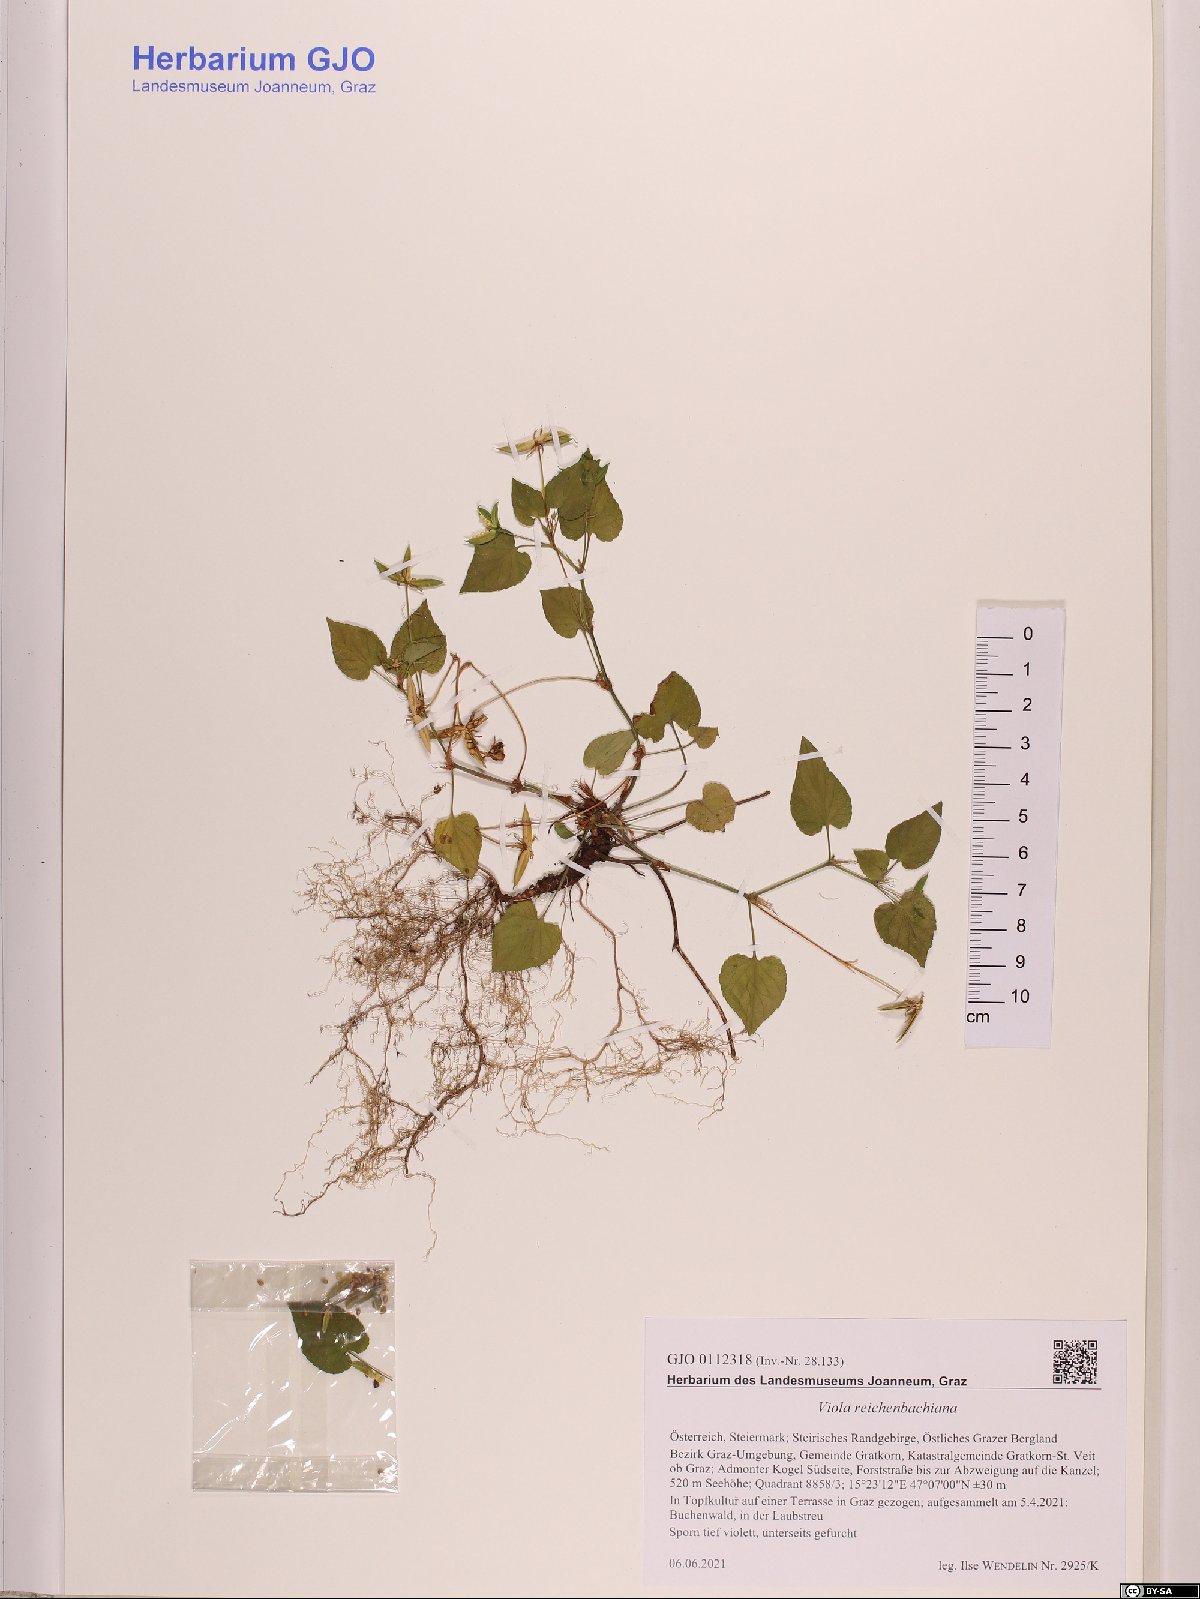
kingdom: Plantae
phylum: Tracheophyta
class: Magnoliopsida
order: Malpighiales
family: Violaceae
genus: Viola
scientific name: Viola reichenbachiana
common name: Early dog-violet
